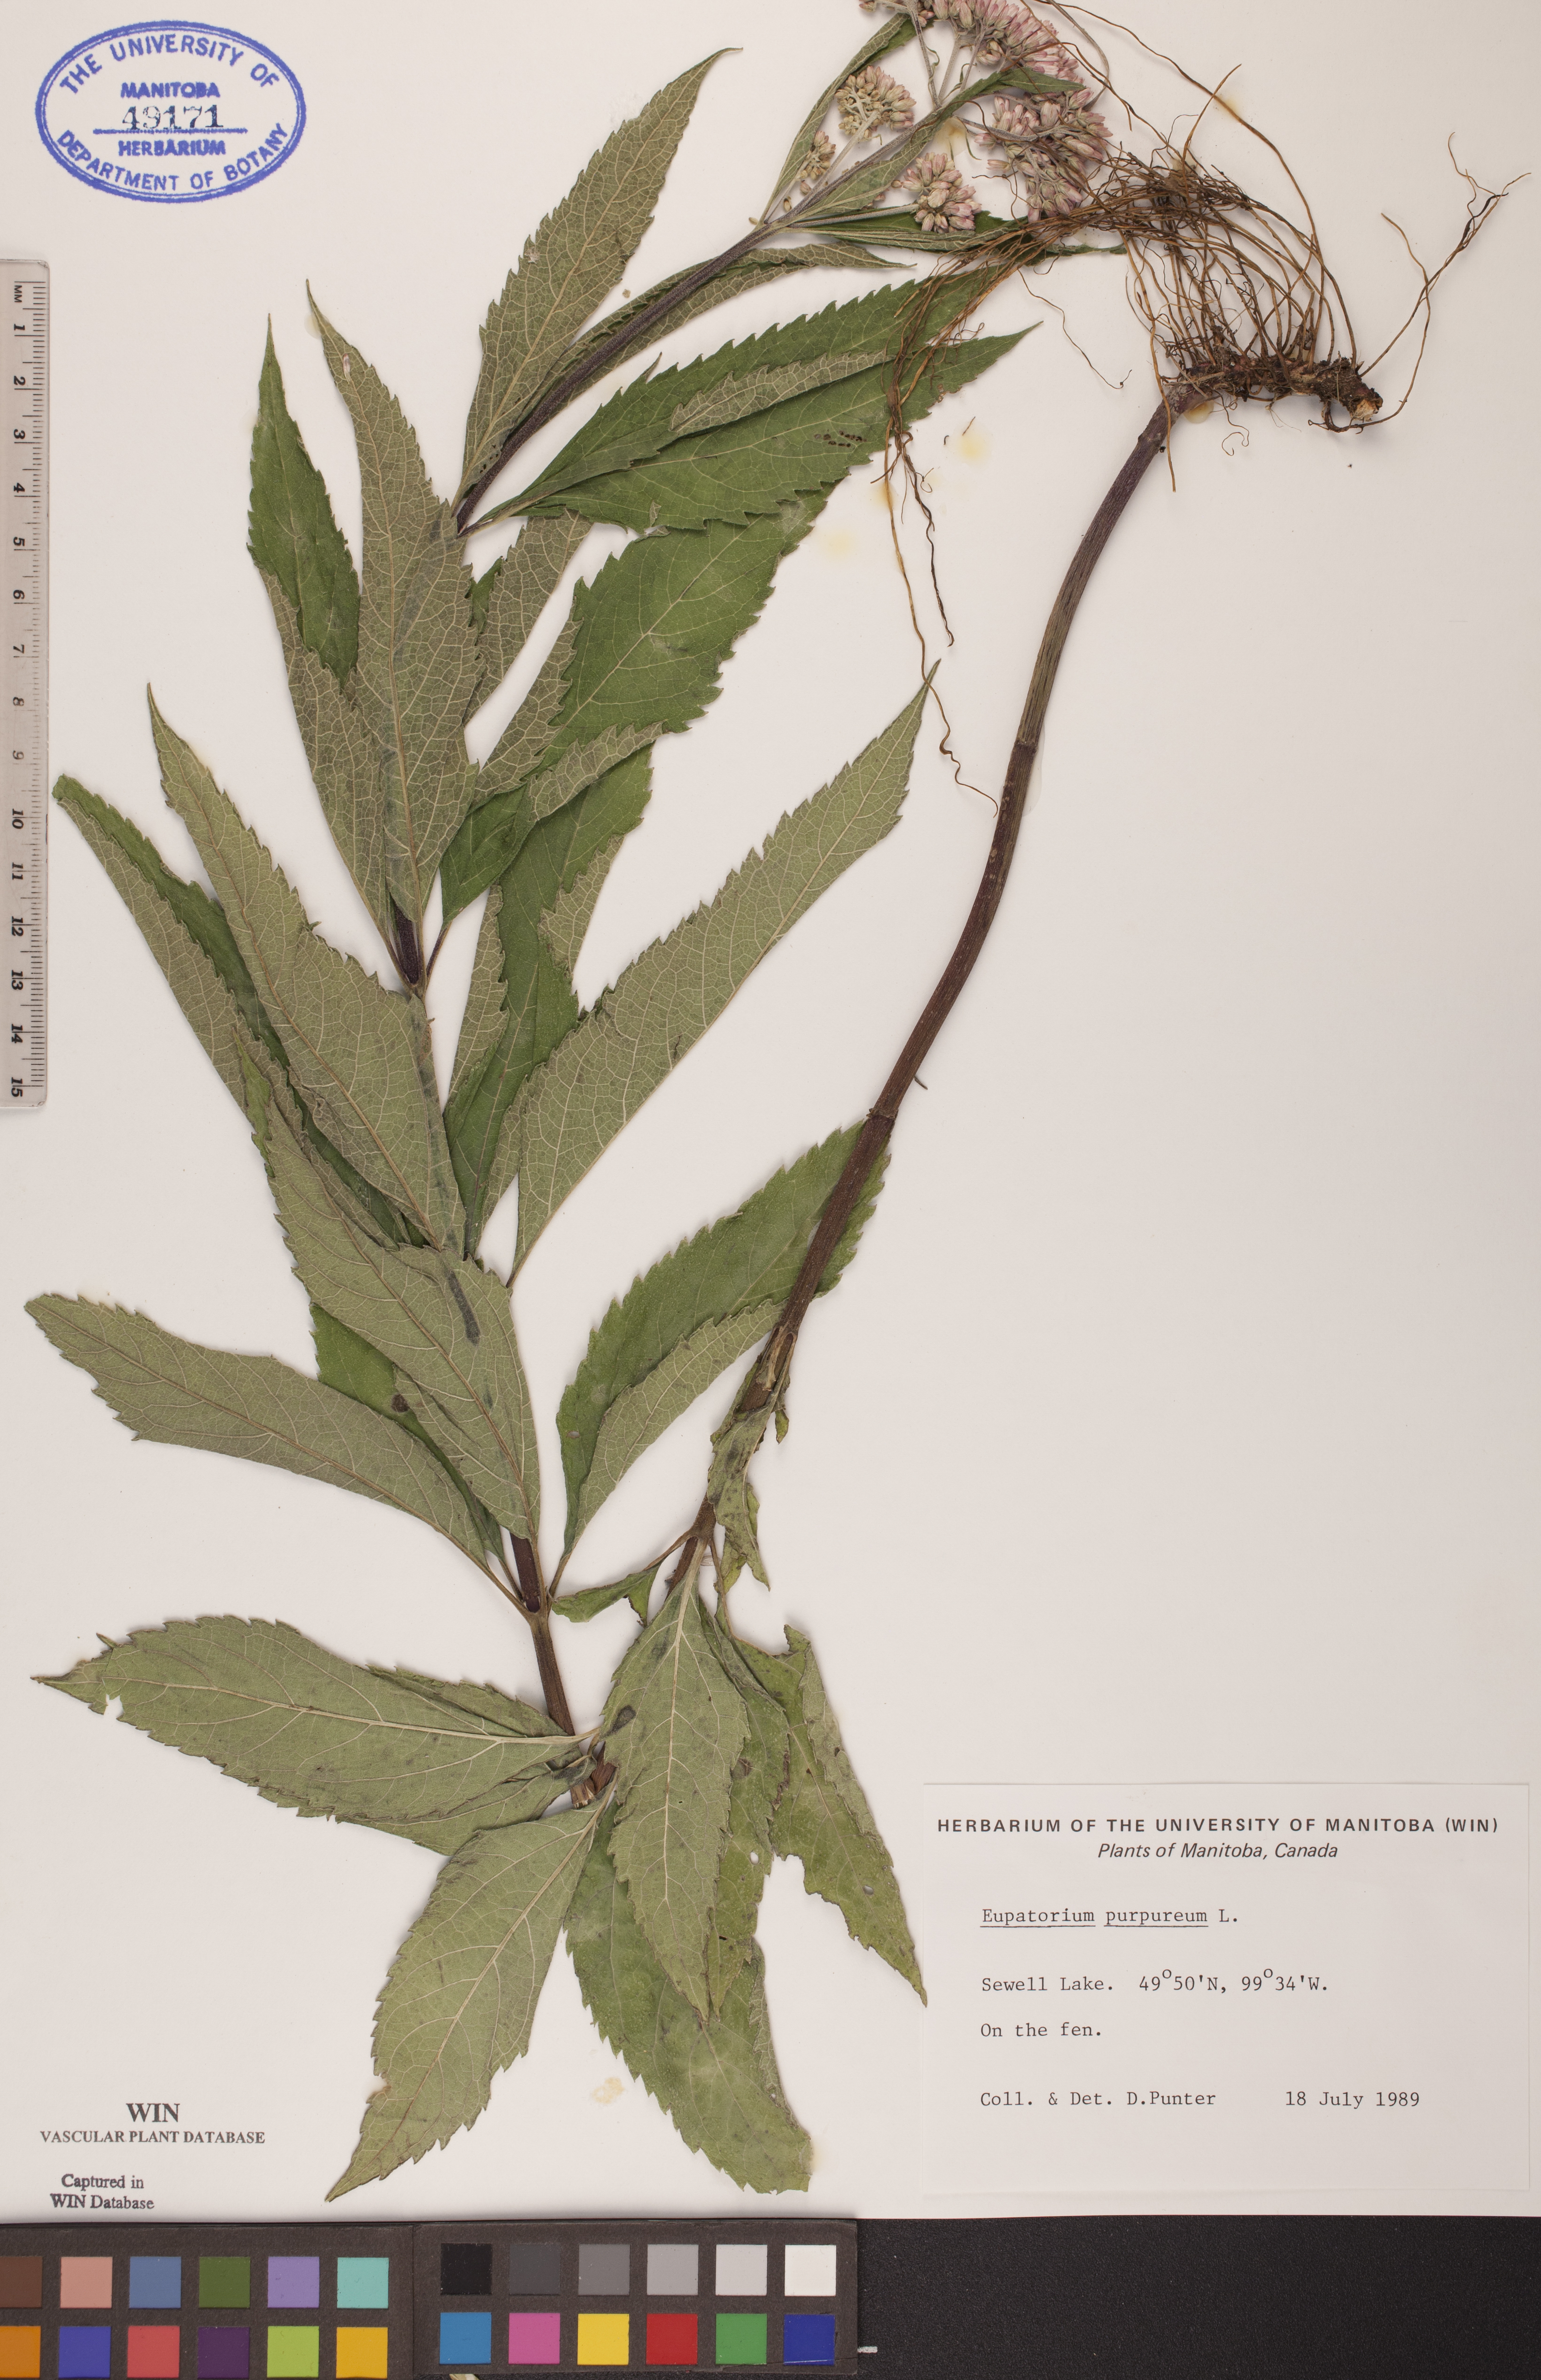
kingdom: Plantae
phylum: Tracheophyta
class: Magnoliopsida
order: Asterales
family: Asteraceae
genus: Eupatorium
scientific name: Eupatorium quaternum
